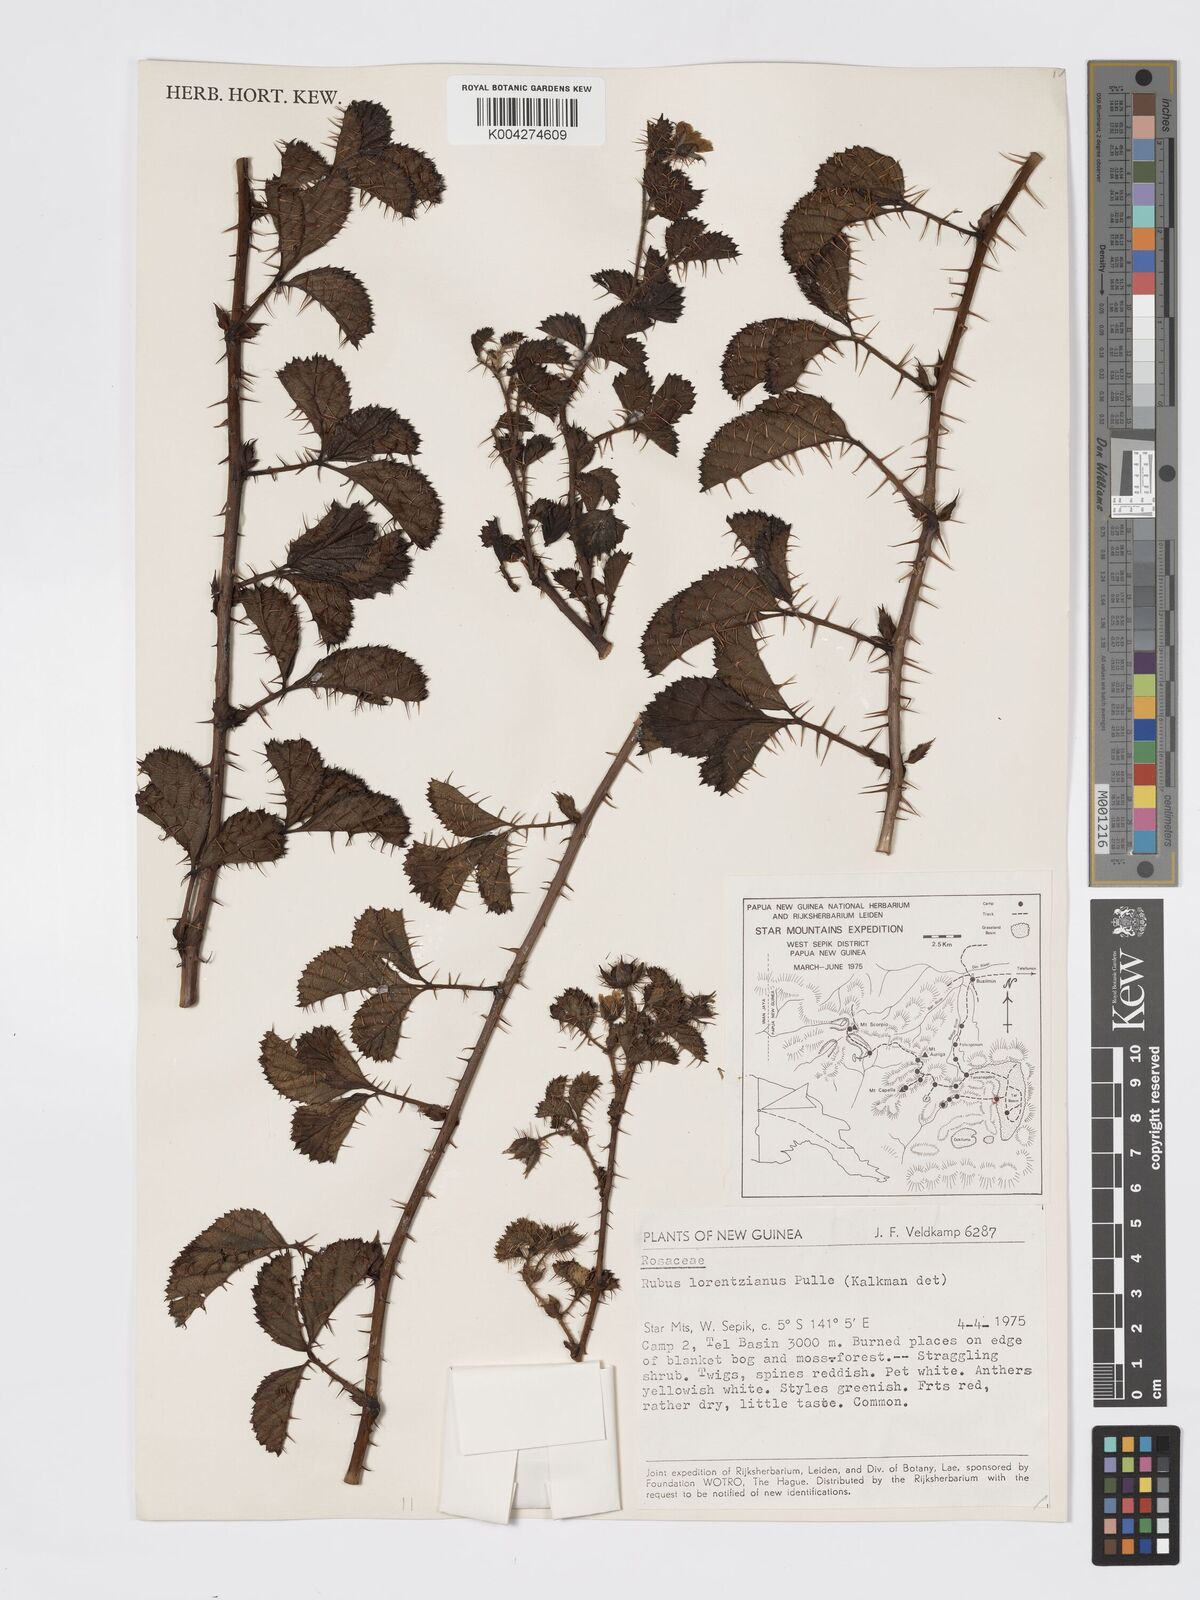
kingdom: Plantae
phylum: Tracheophyta
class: Magnoliopsida
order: Rosales
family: Rosaceae
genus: Rubus
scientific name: Rubus lorentzianus
